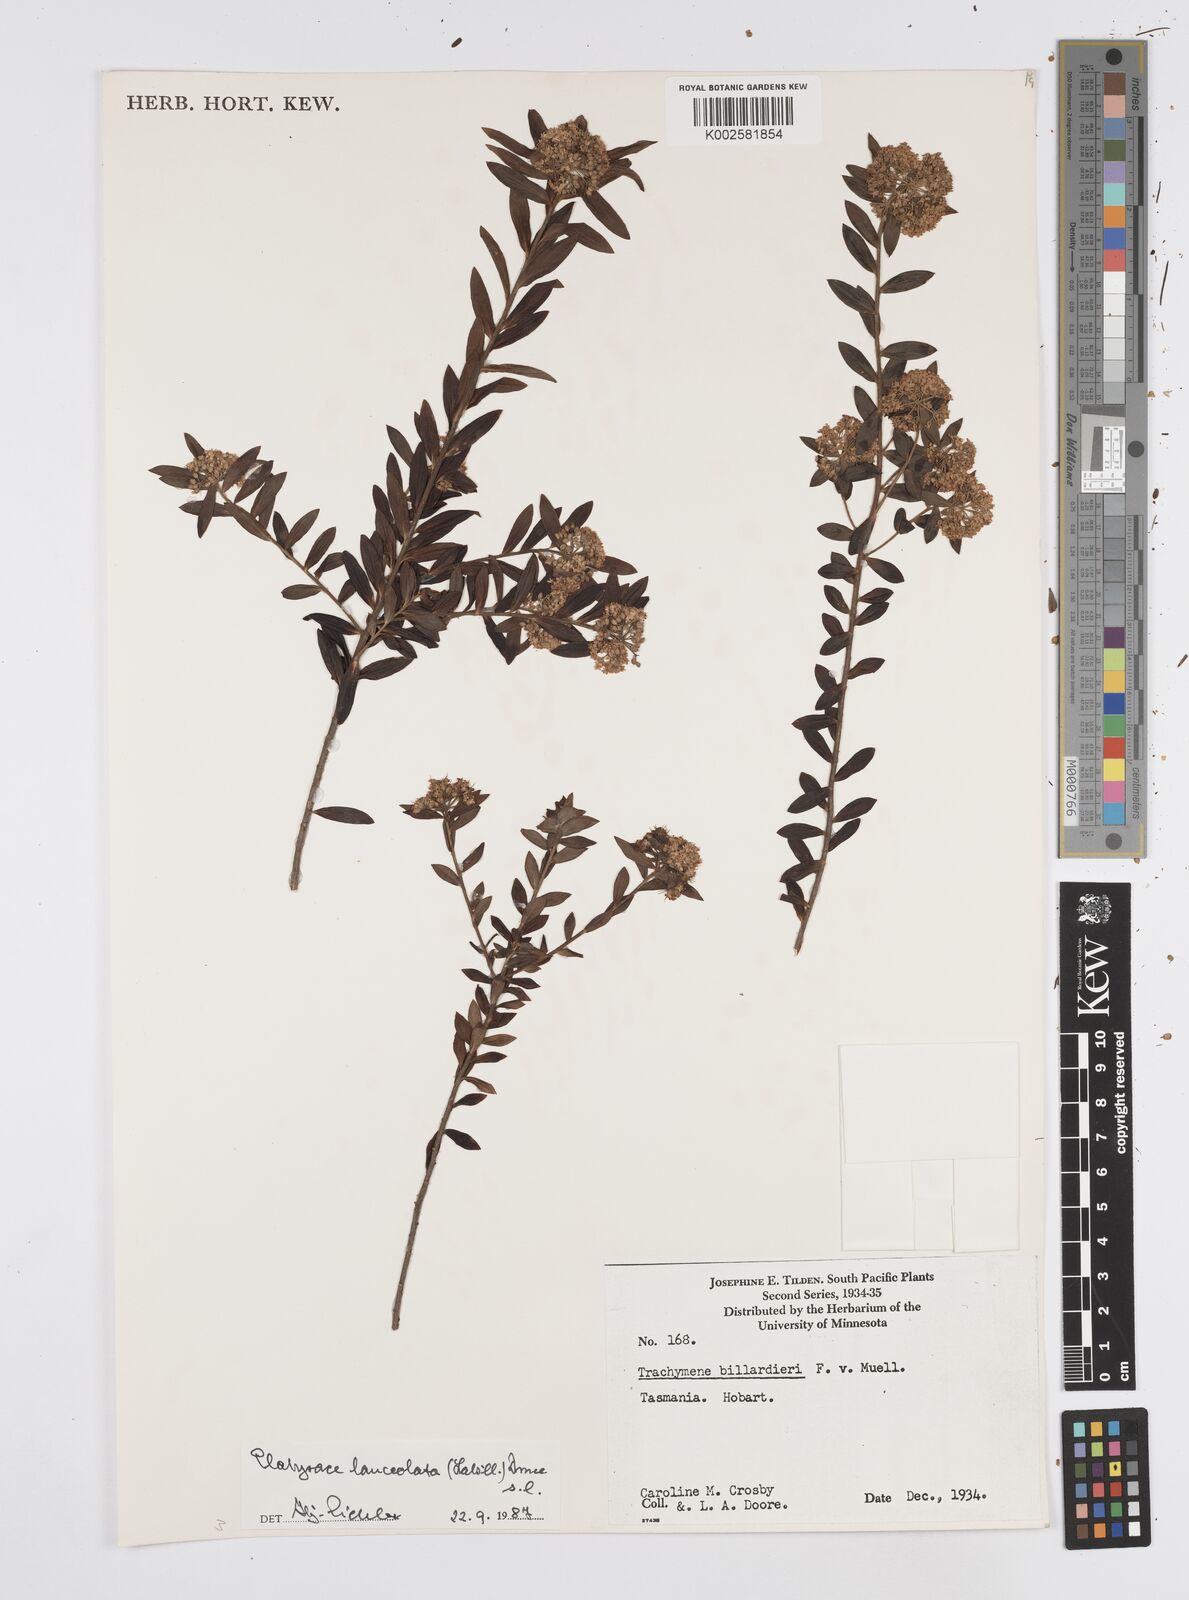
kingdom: Plantae
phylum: Tracheophyta
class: Magnoliopsida
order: Apiales
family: Apiaceae
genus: Platysace
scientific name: Platysace lanceolata
